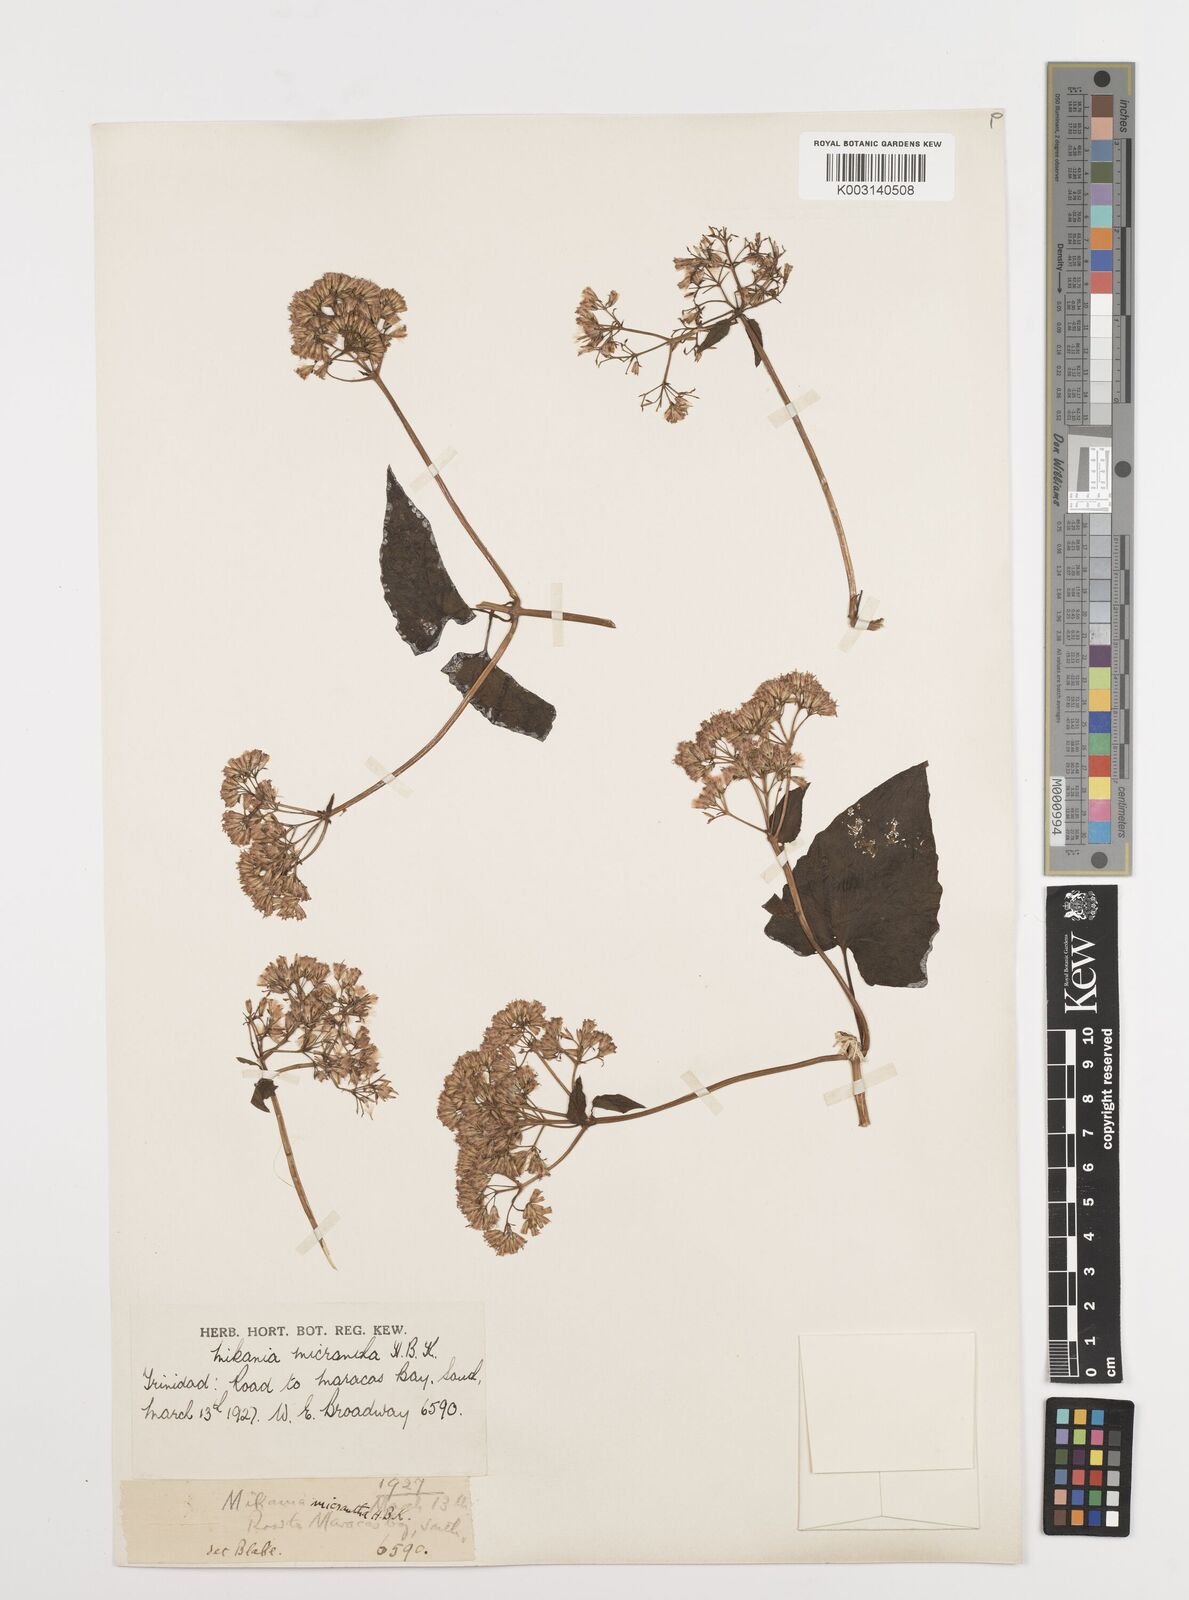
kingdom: Plantae
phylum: Tracheophyta
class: Magnoliopsida
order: Asterales
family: Asteraceae
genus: Mikania
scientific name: Mikania micrantha
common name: Mile-a-minute
